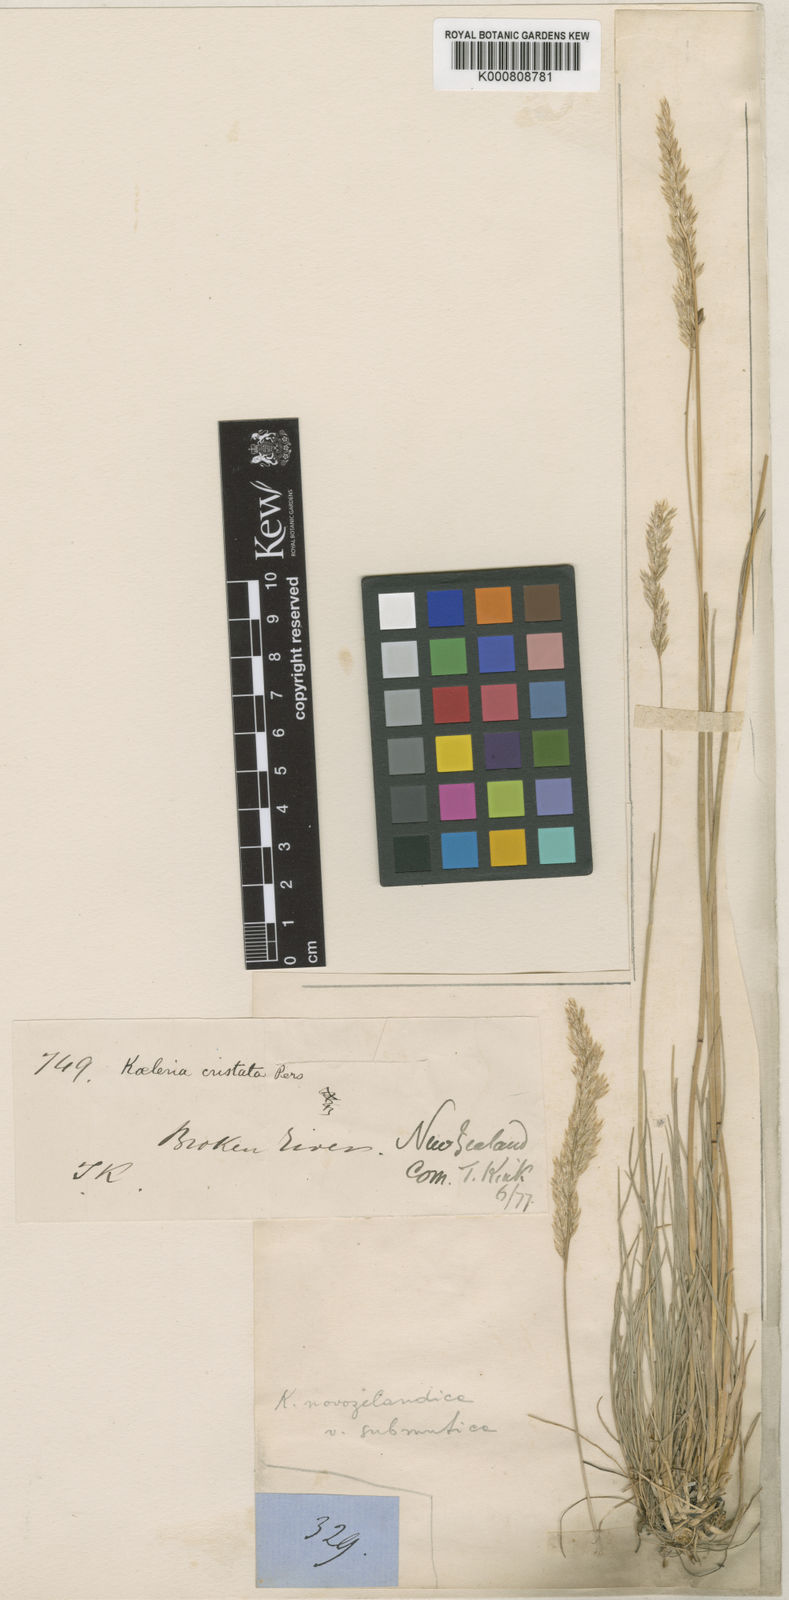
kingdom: Plantae
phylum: Tracheophyta
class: Liliopsida
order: Poales
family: Poaceae
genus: Koeleria
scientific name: Koeleria novozelandica
